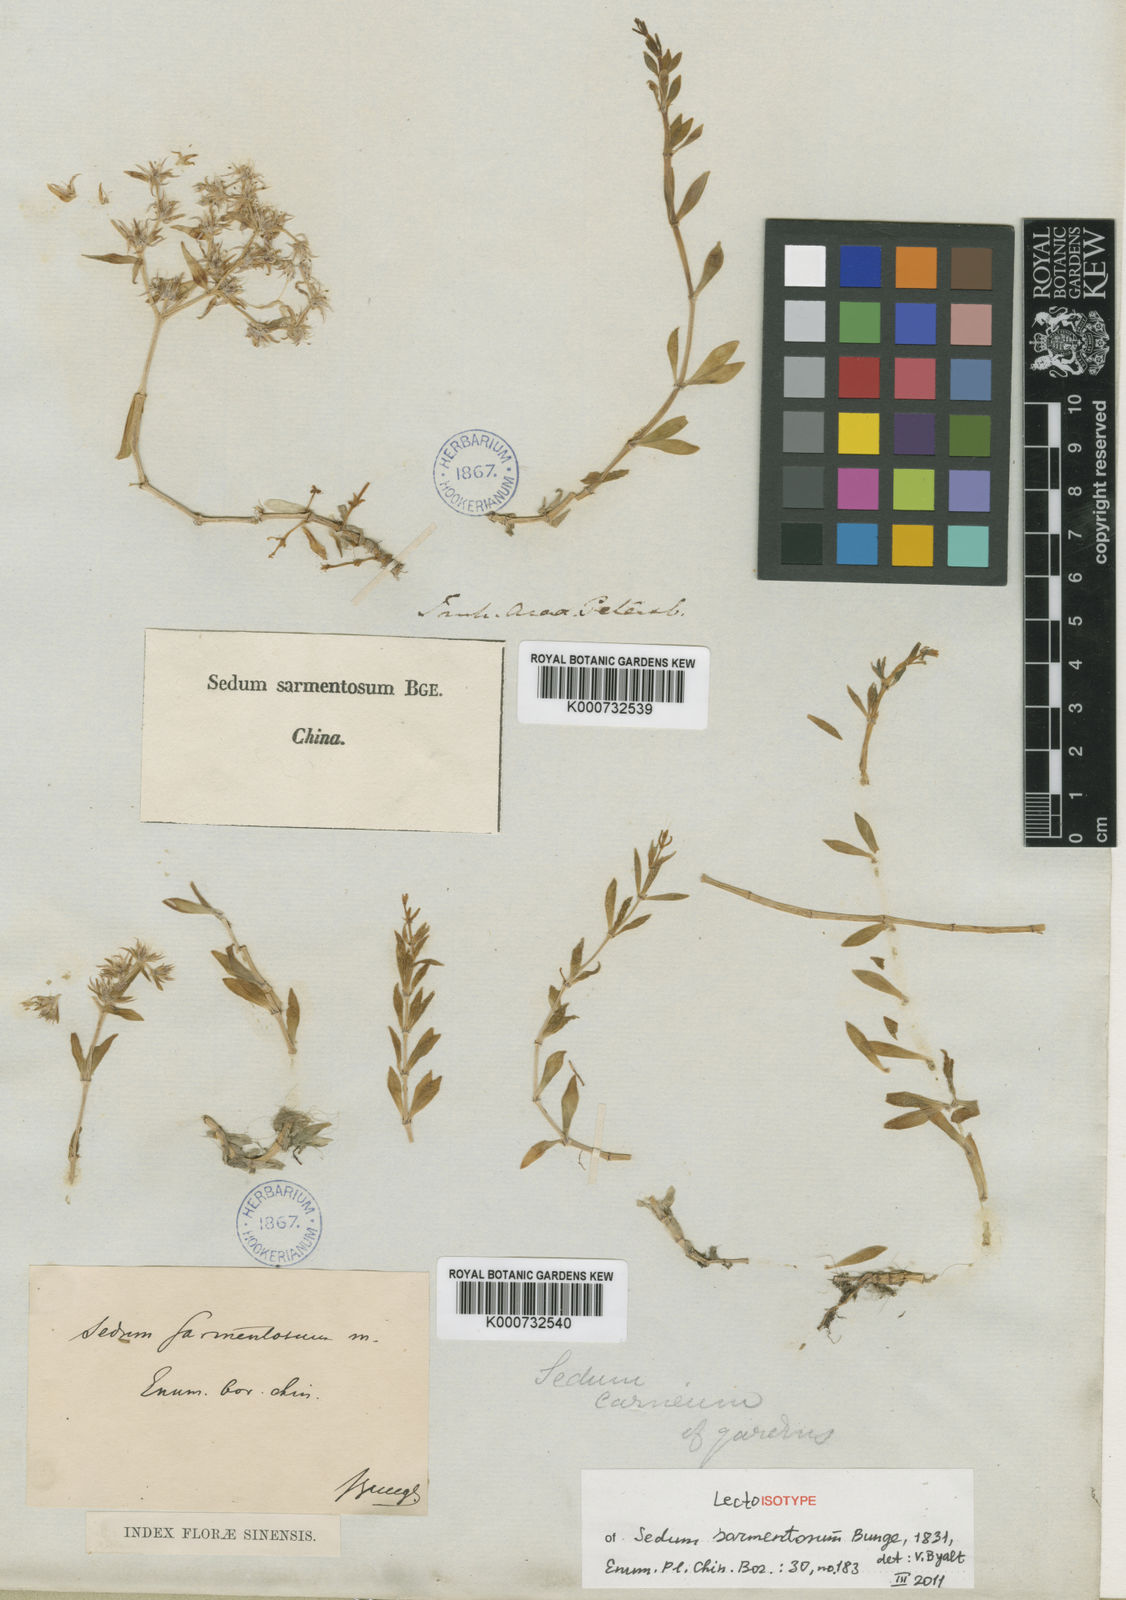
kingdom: Plantae
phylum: Tracheophyta
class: Magnoliopsida
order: Saxifragales
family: Crassulaceae
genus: Sedum
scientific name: Sedum sarmentosum
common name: Stringy stonecrop
